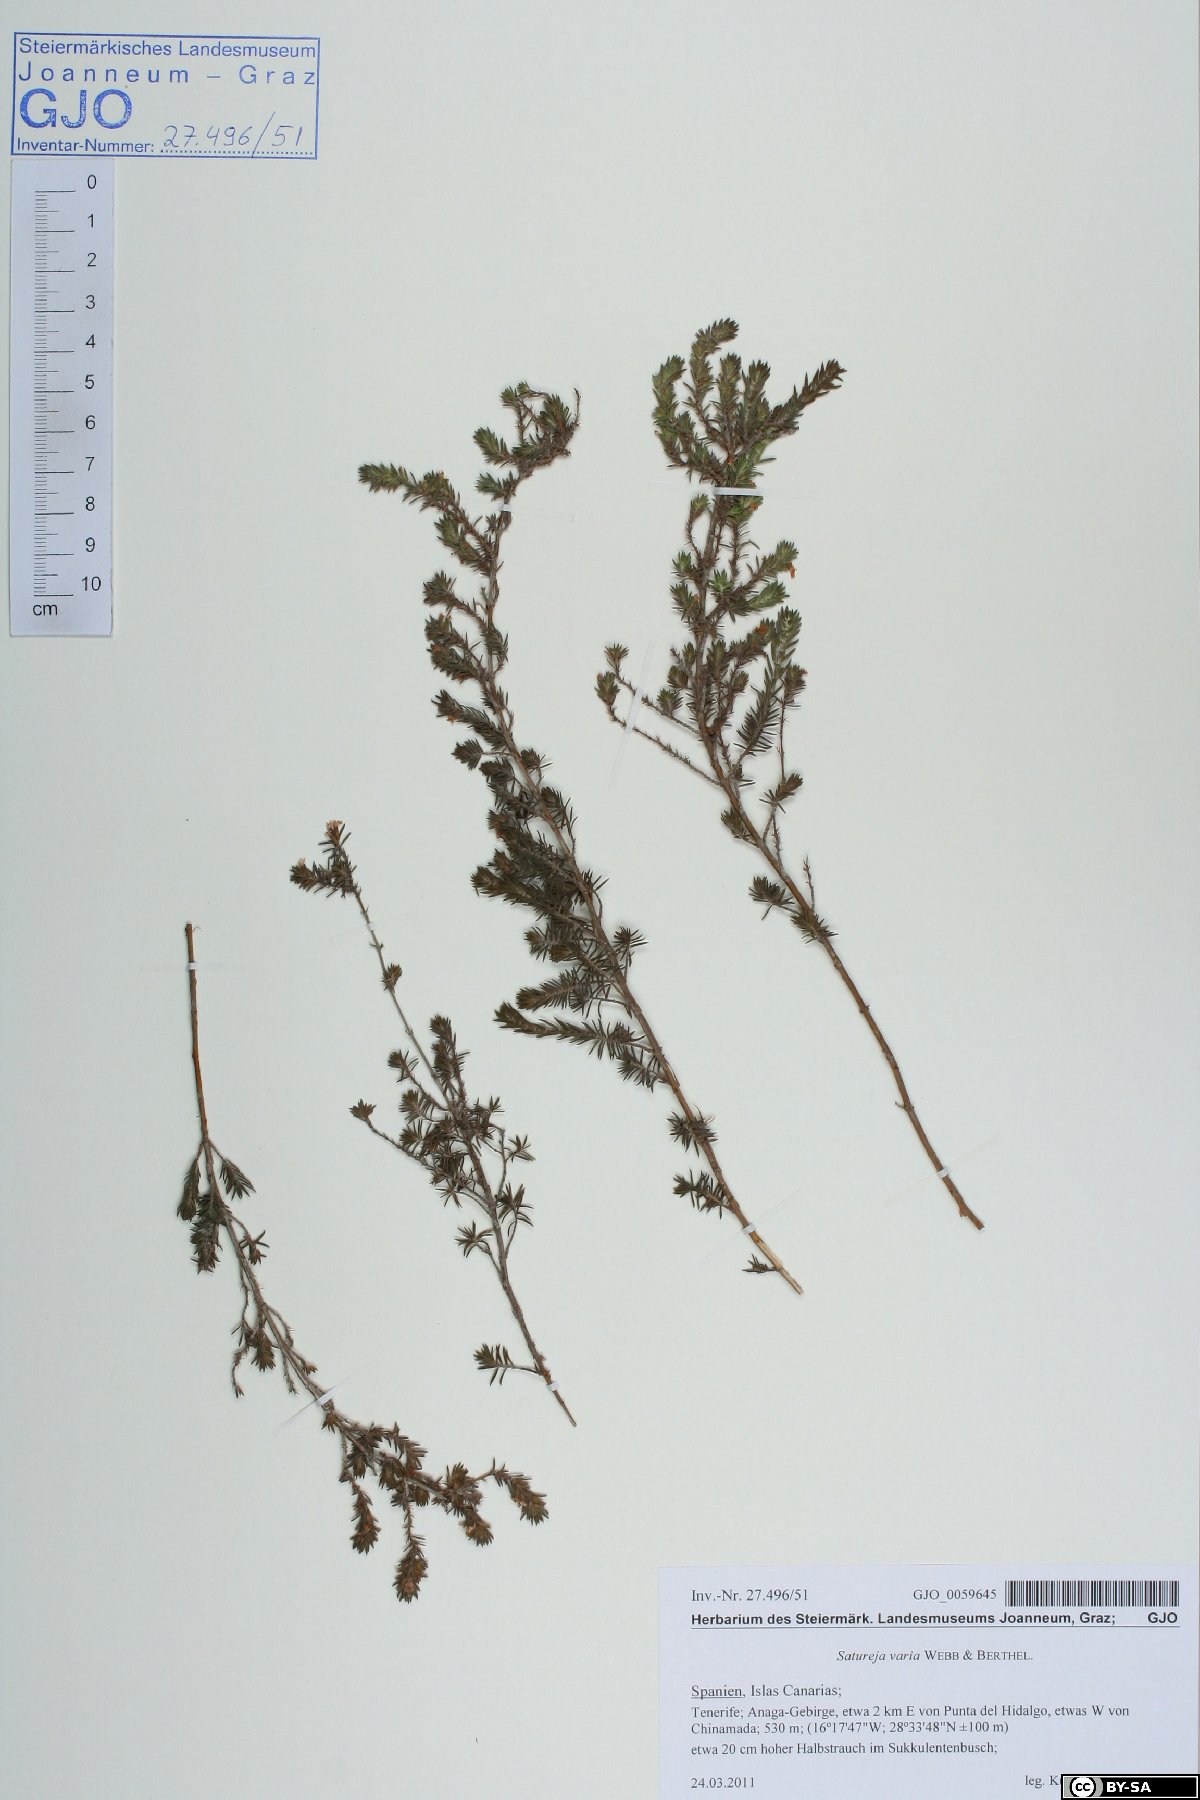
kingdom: Plantae
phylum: Tracheophyta
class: Magnoliopsida
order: Lamiales
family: Lamiaceae
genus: Micromeria
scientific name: Micromeria ericifolia
